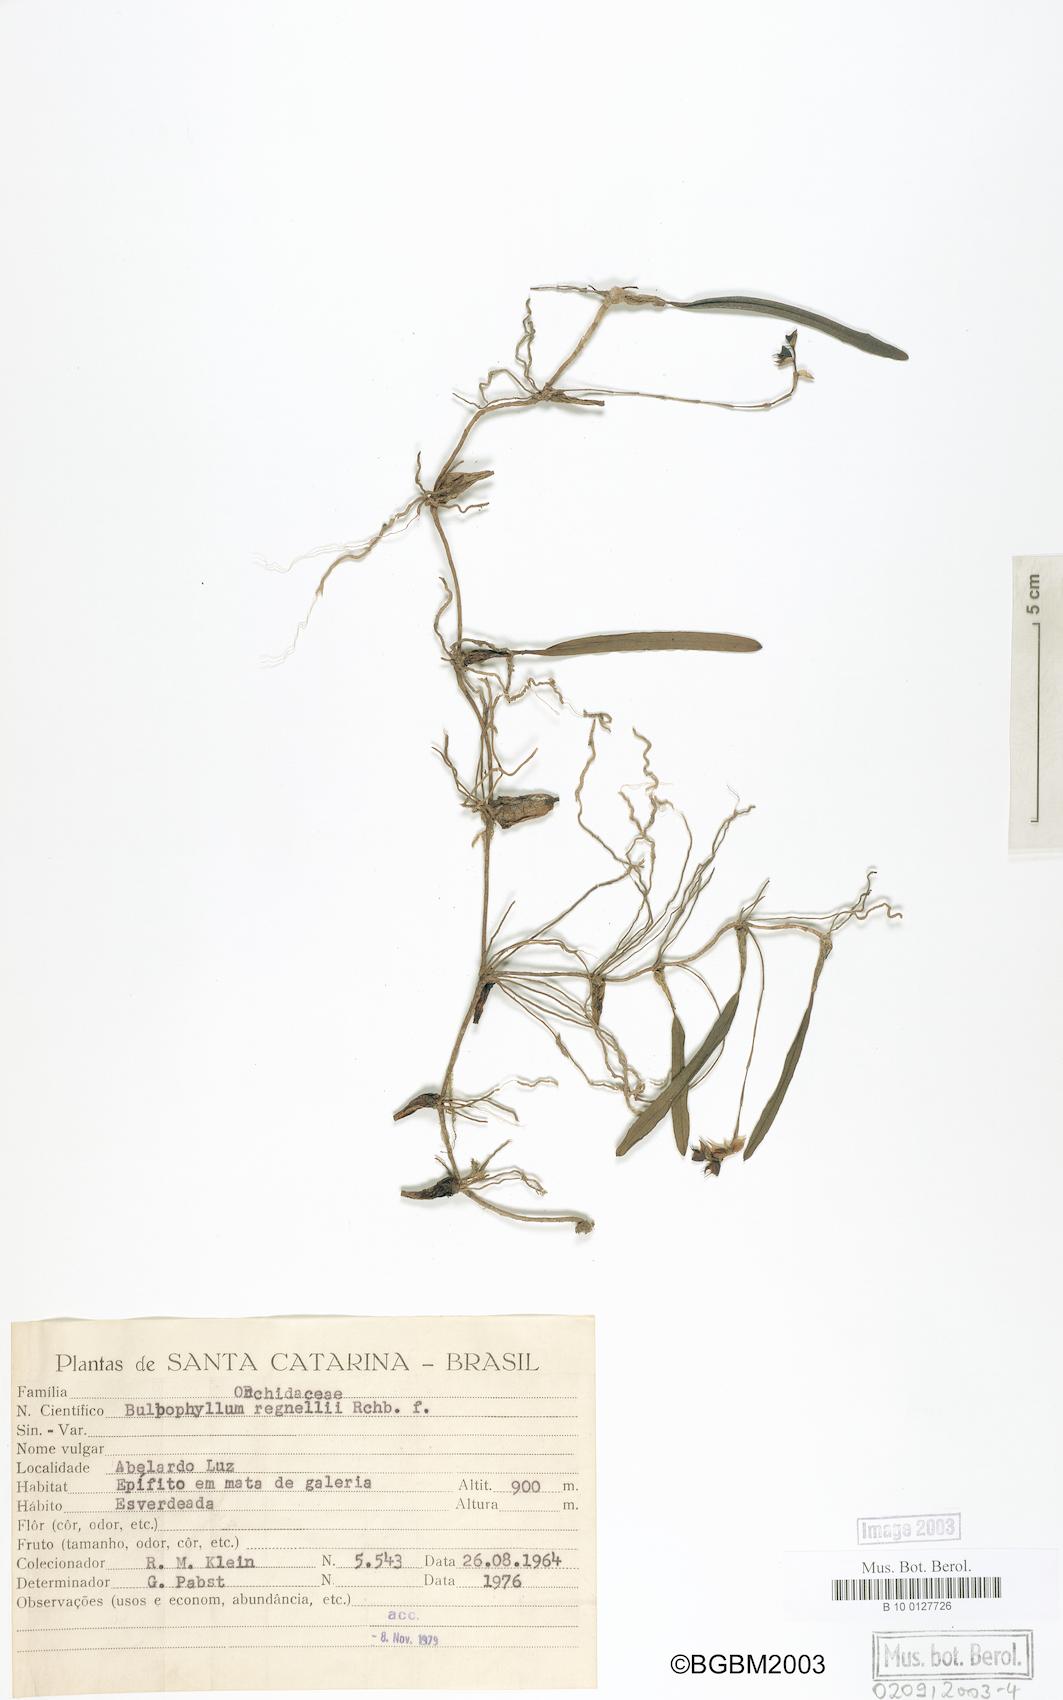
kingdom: Plantae
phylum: Tracheophyta
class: Liliopsida
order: Asparagales
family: Orchidaceae
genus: Bulbophyllum
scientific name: Bulbophyllum regnellii
